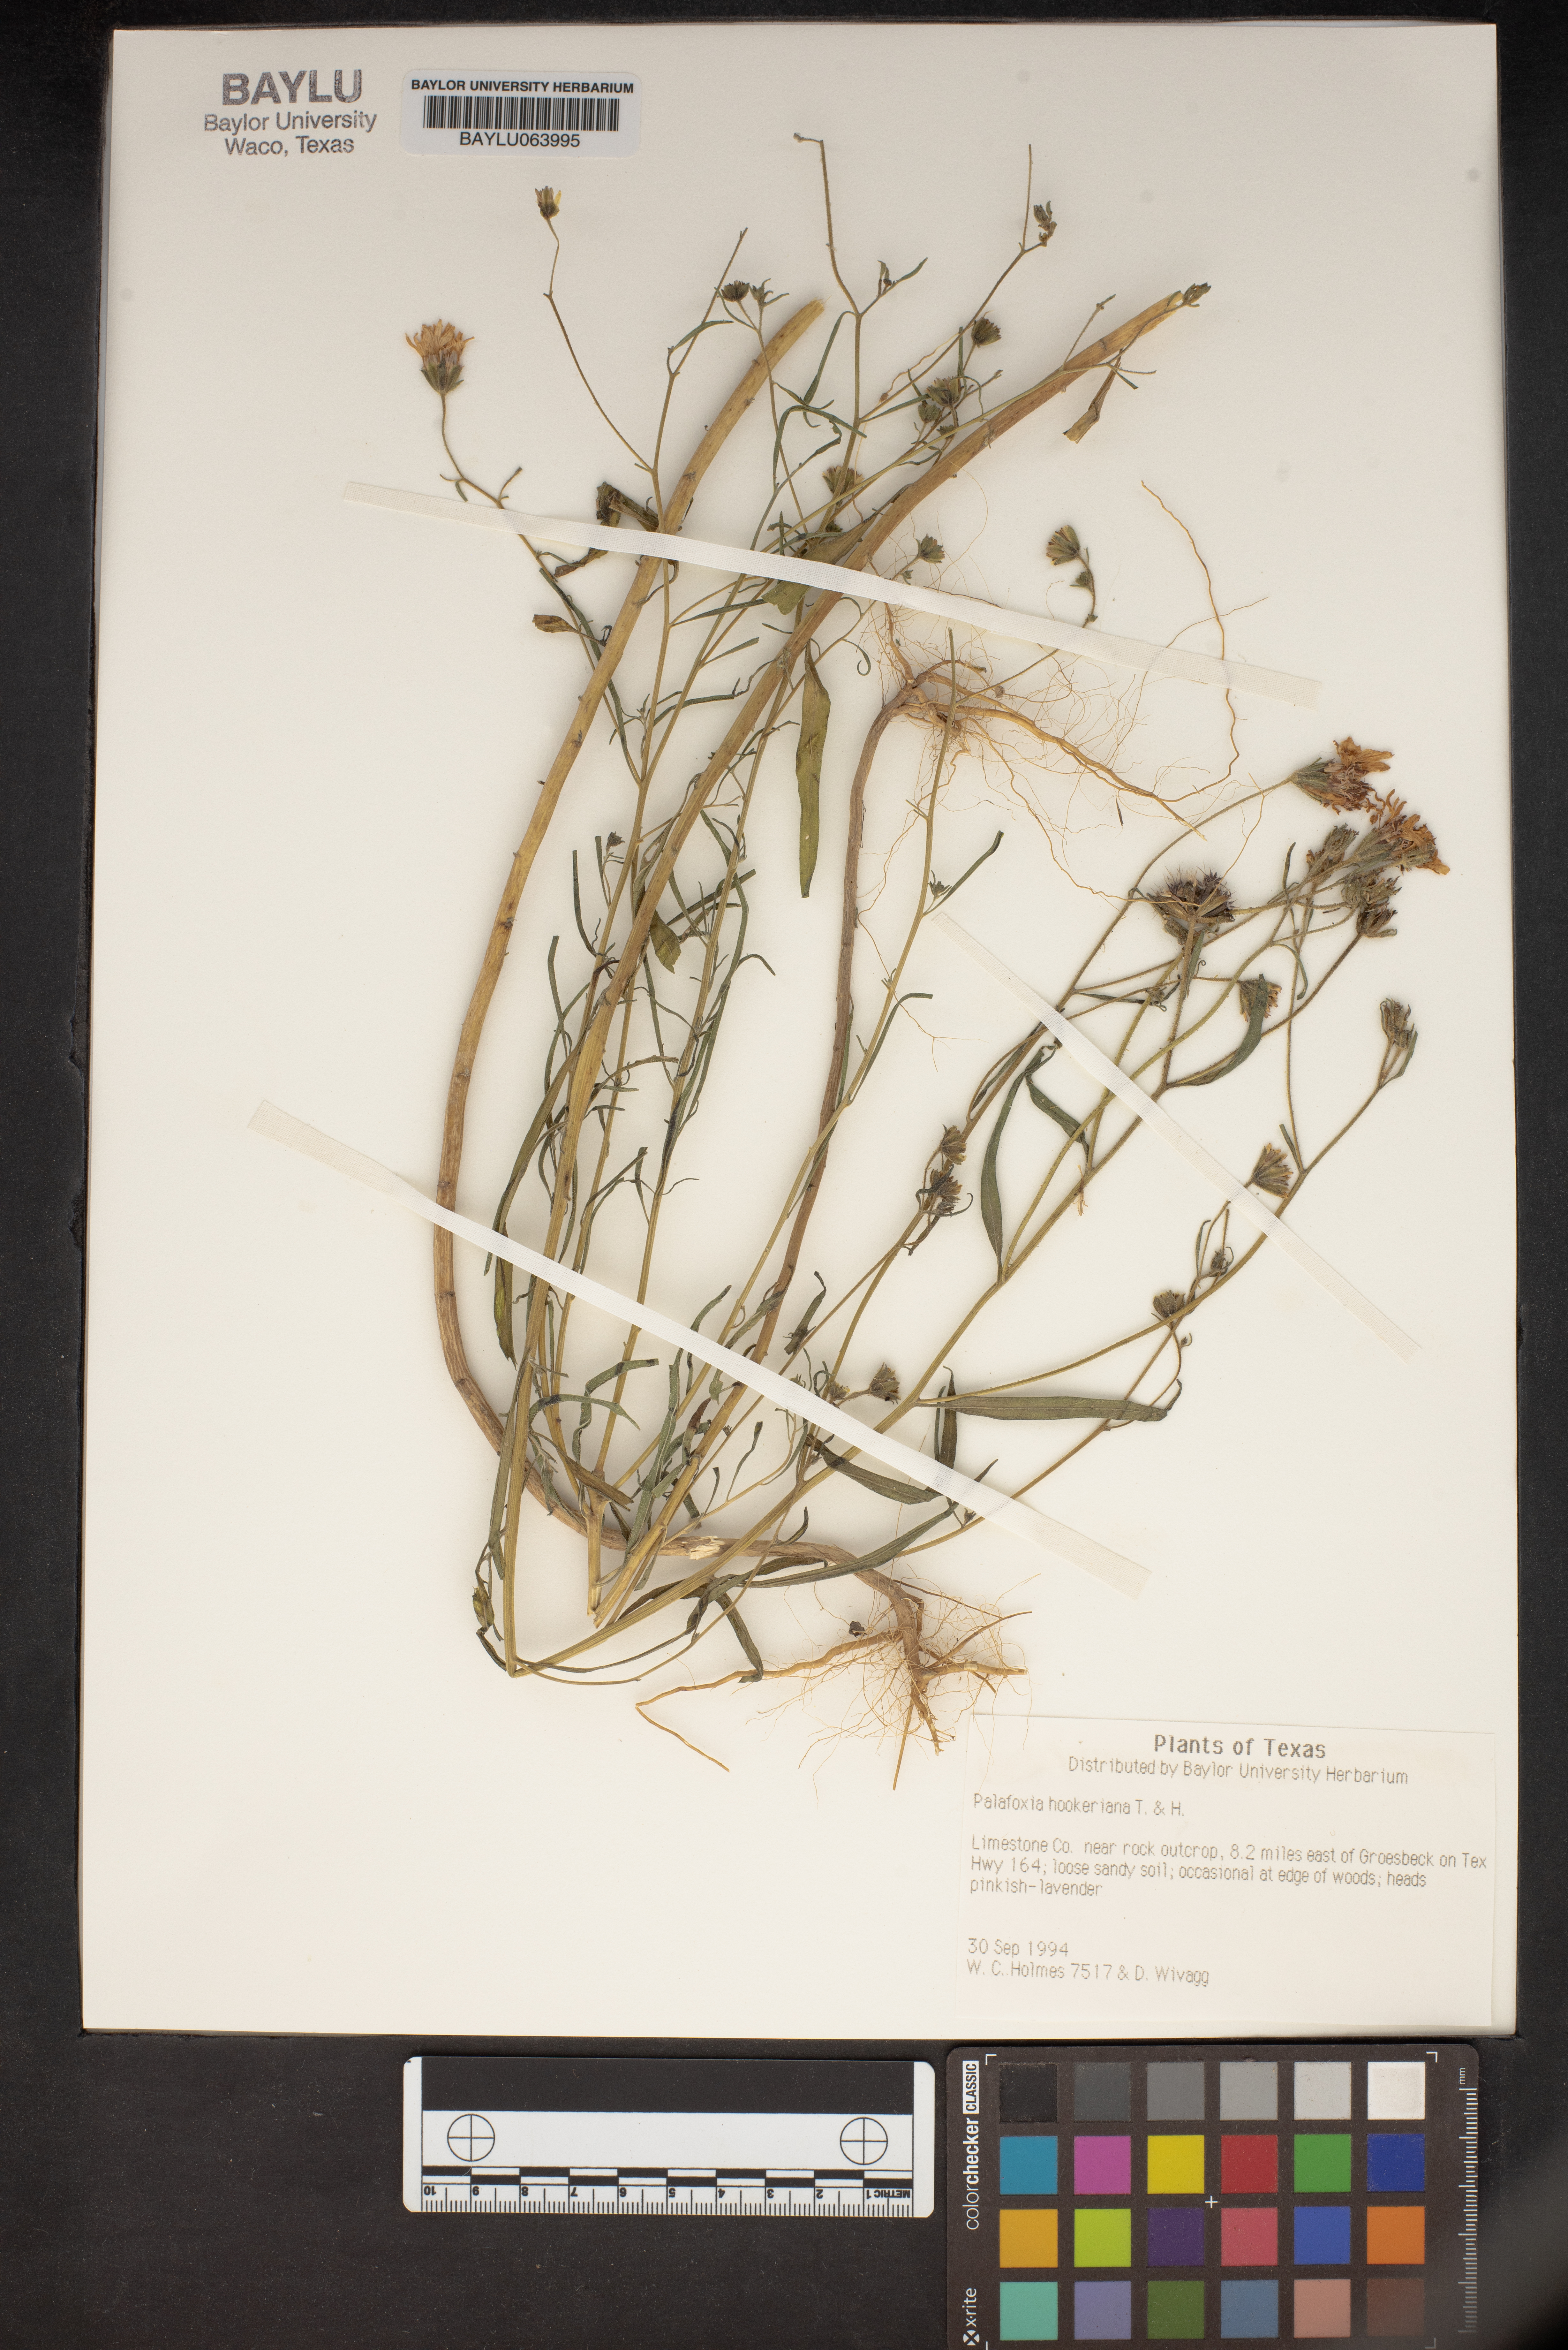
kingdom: Plantae
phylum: Tracheophyta
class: Magnoliopsida
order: Asterales
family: Asteraceae
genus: Palafoxia
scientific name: Palafoxia hookeriana
